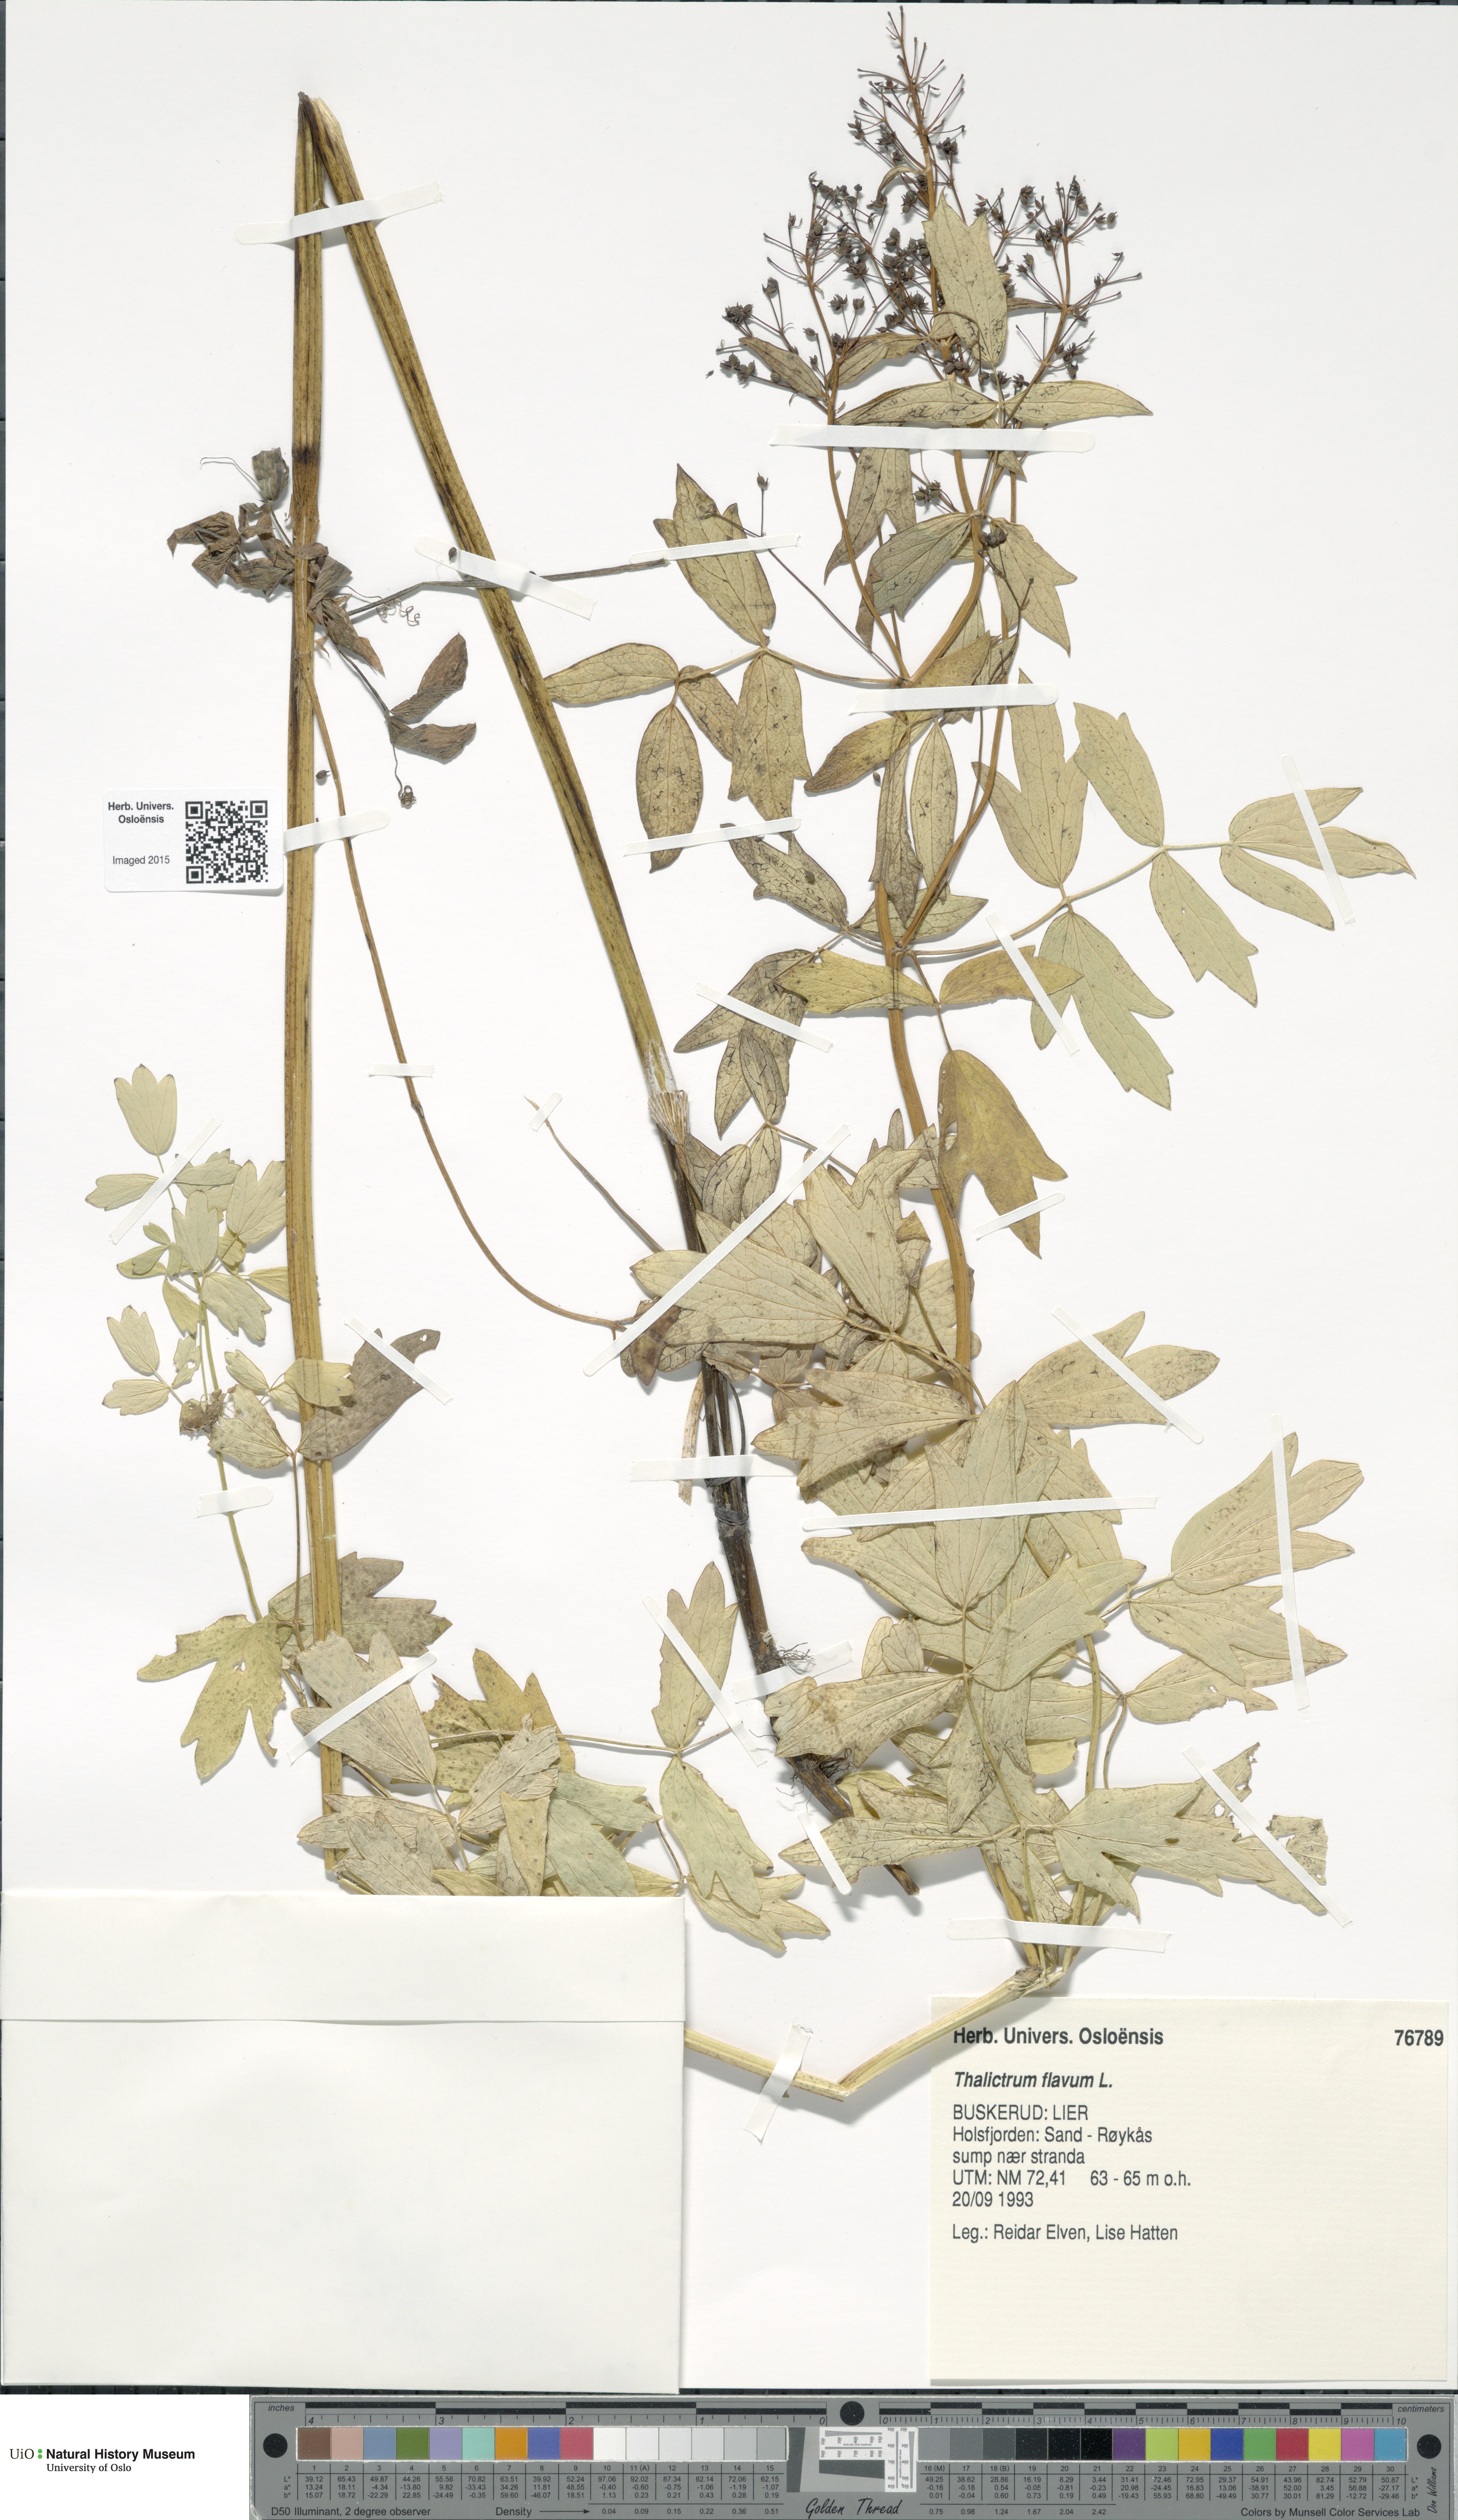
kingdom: Plantae
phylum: Tracheophyta
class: Magnoliopsida
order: Ranunculales
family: Ranunculaceae
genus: Thalictrum
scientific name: Thalictrum flavum
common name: Common meadow-rue
